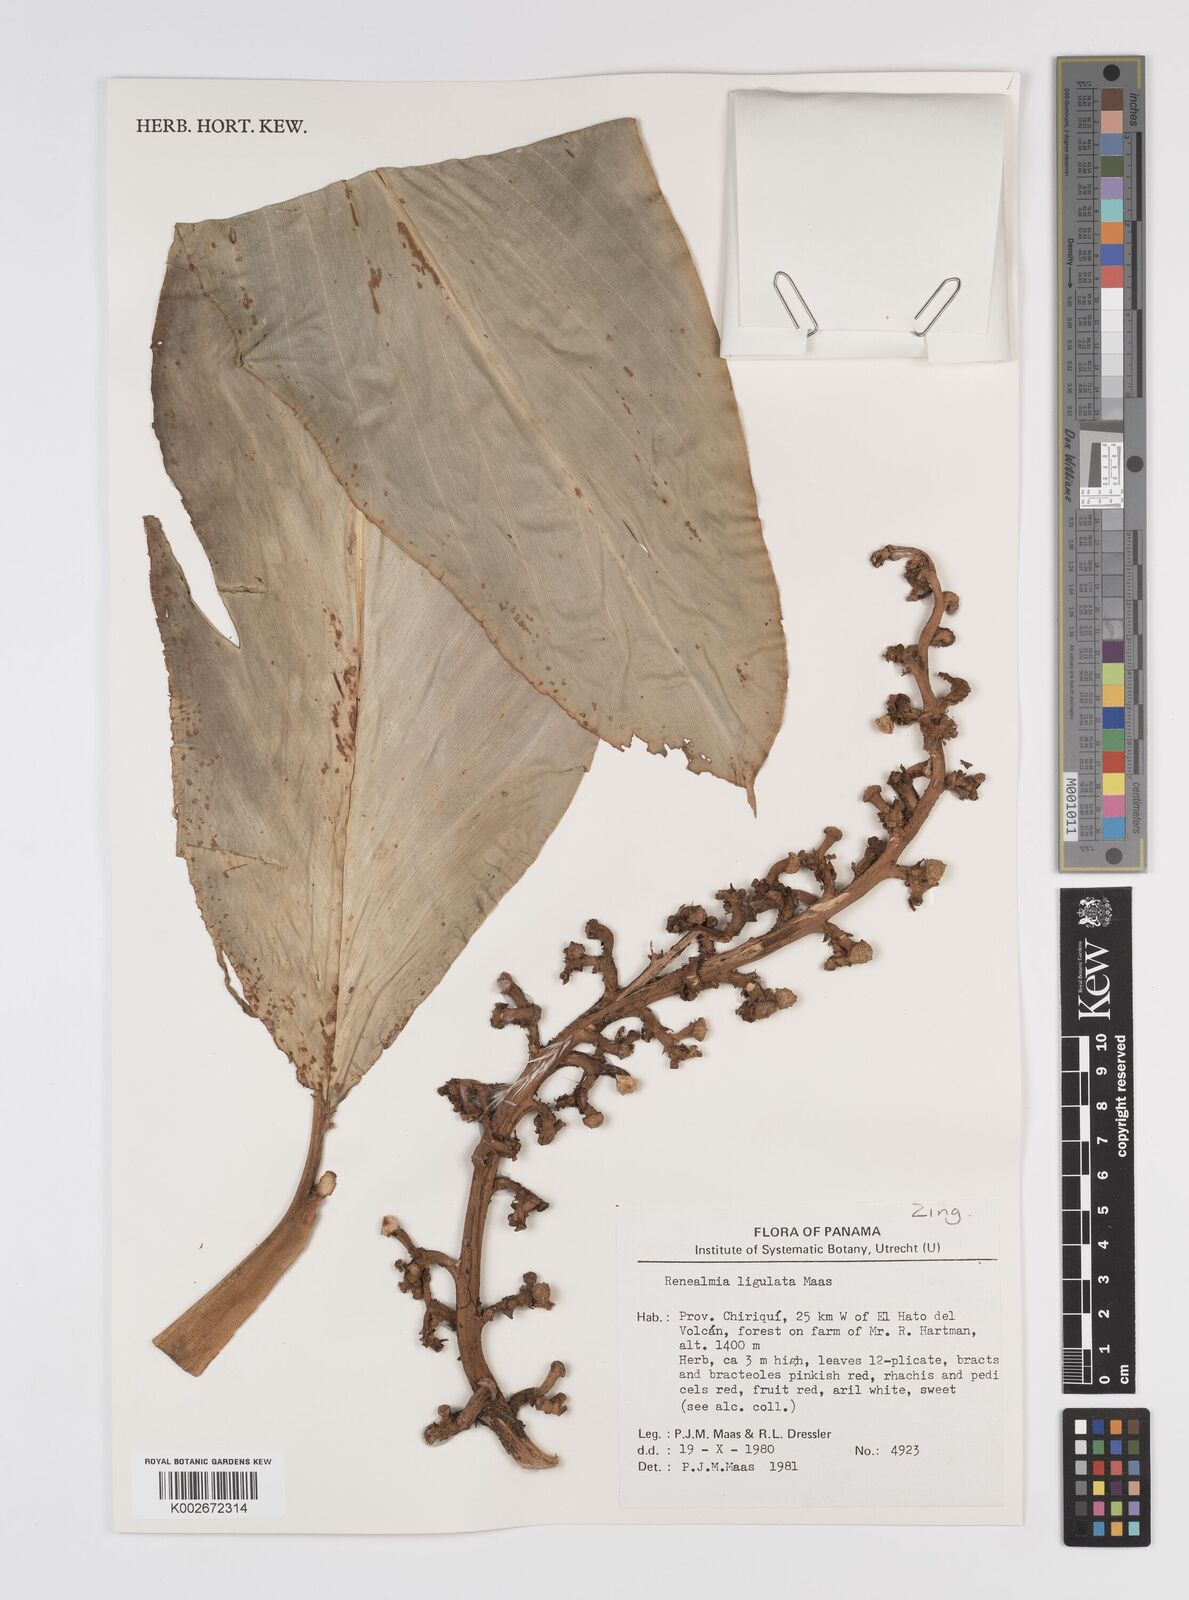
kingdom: Plantae
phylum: Tracheophyta
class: Liliopsida
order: Zingiberales
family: Zingiberaceae
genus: Renealmia
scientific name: Renealmia ligulata
